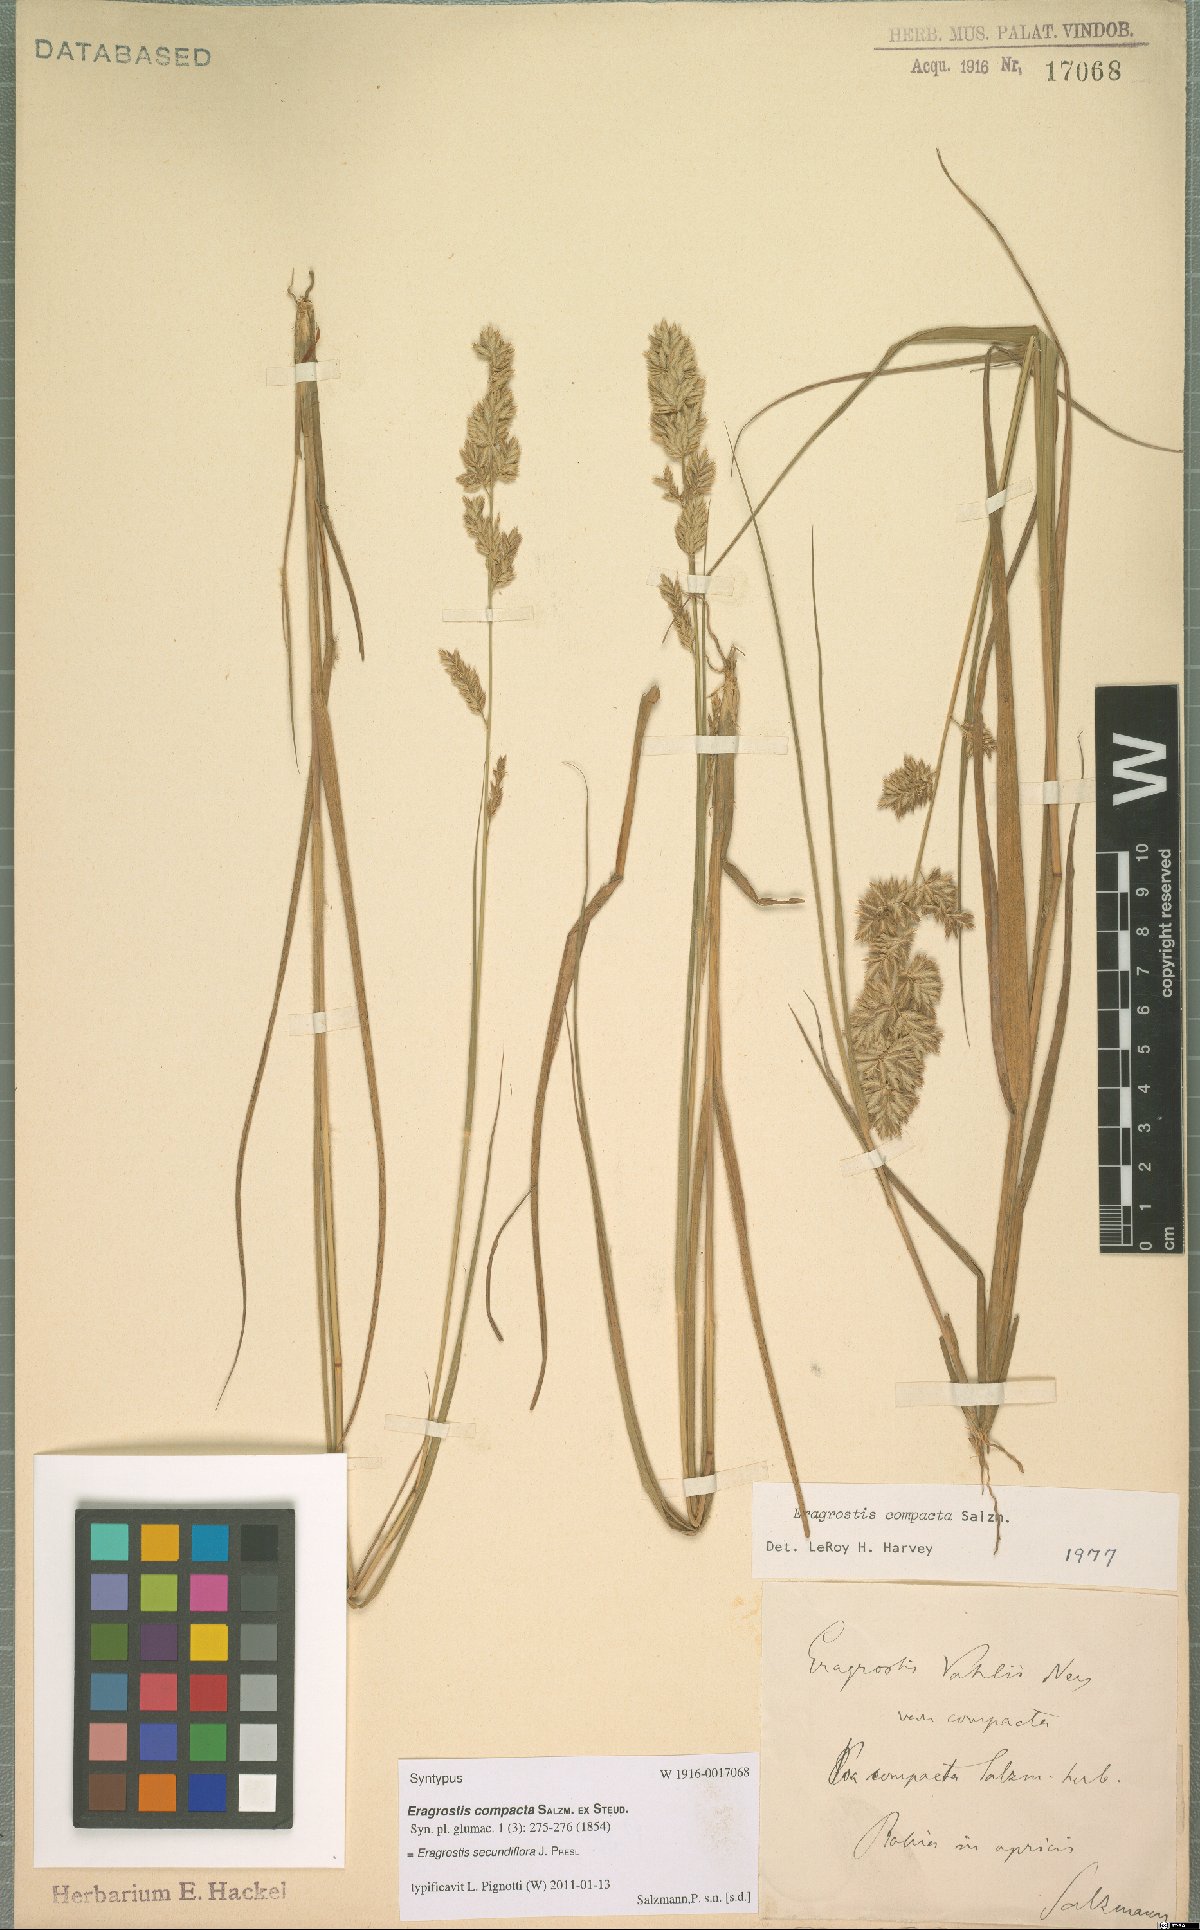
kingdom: Plantae
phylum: Tracheophyta
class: Liliopsida
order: Poales
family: Poaceae
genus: Eragrostis
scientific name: Eragrostis secundiflora
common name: Red love grass
